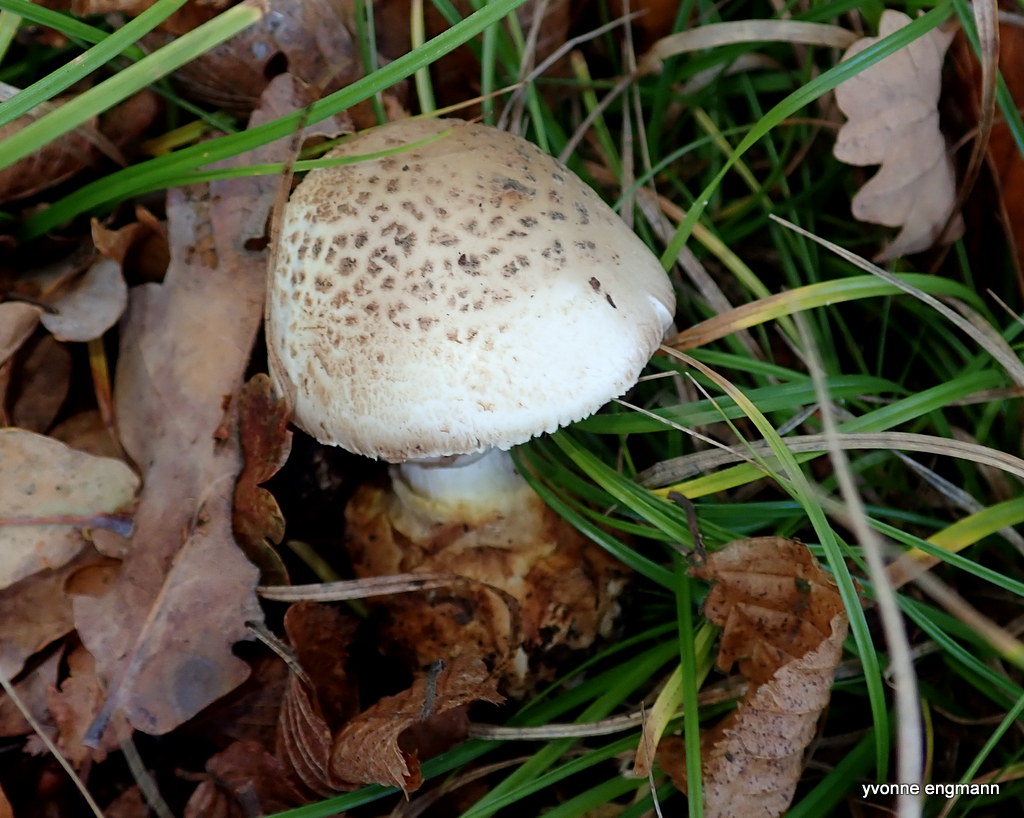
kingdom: Fungi
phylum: Basidiomycota
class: Agaricomycetes
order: Agaricales
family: Amanitaceae
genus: Amanita
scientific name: Amanita citrina
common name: kugleknoldet fluesvamp
